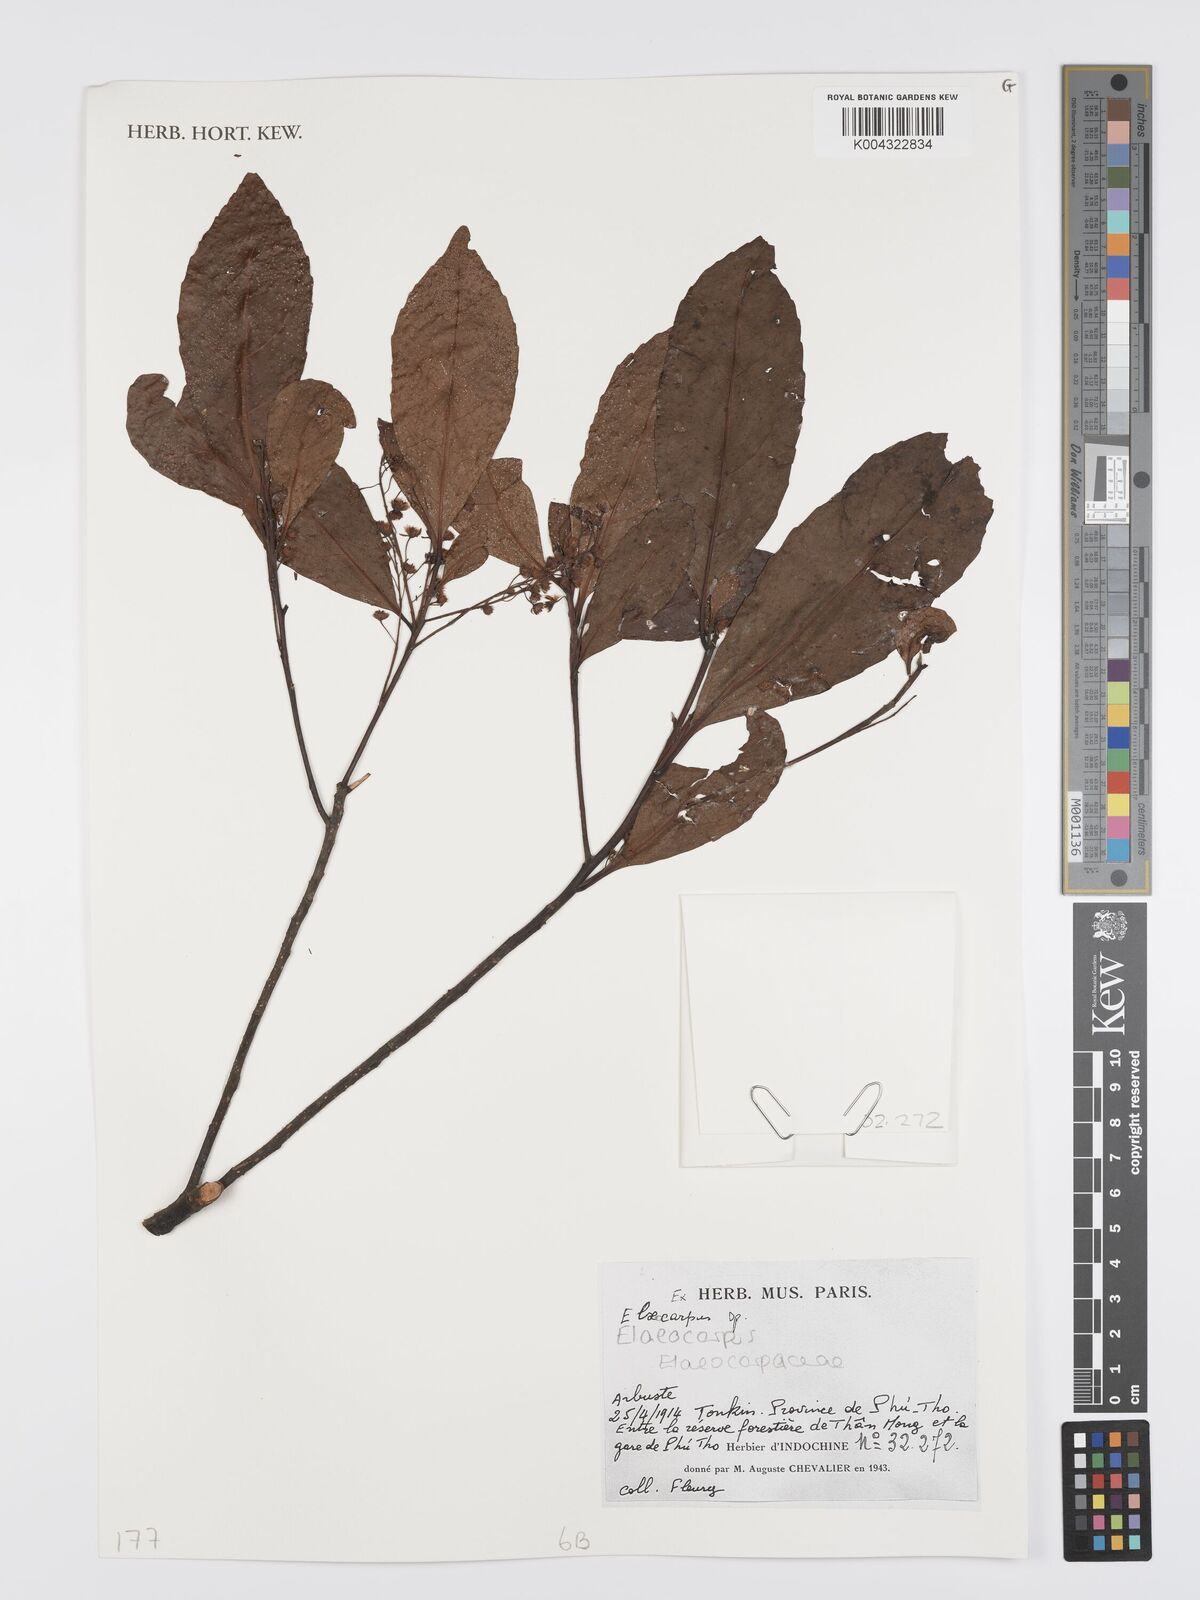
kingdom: Plantae
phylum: Tracheophyta
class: Magnoliopsida
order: Oxalidales
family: Elaeocarpaceae
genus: Elaeocarpus
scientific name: Elaeocarpus
